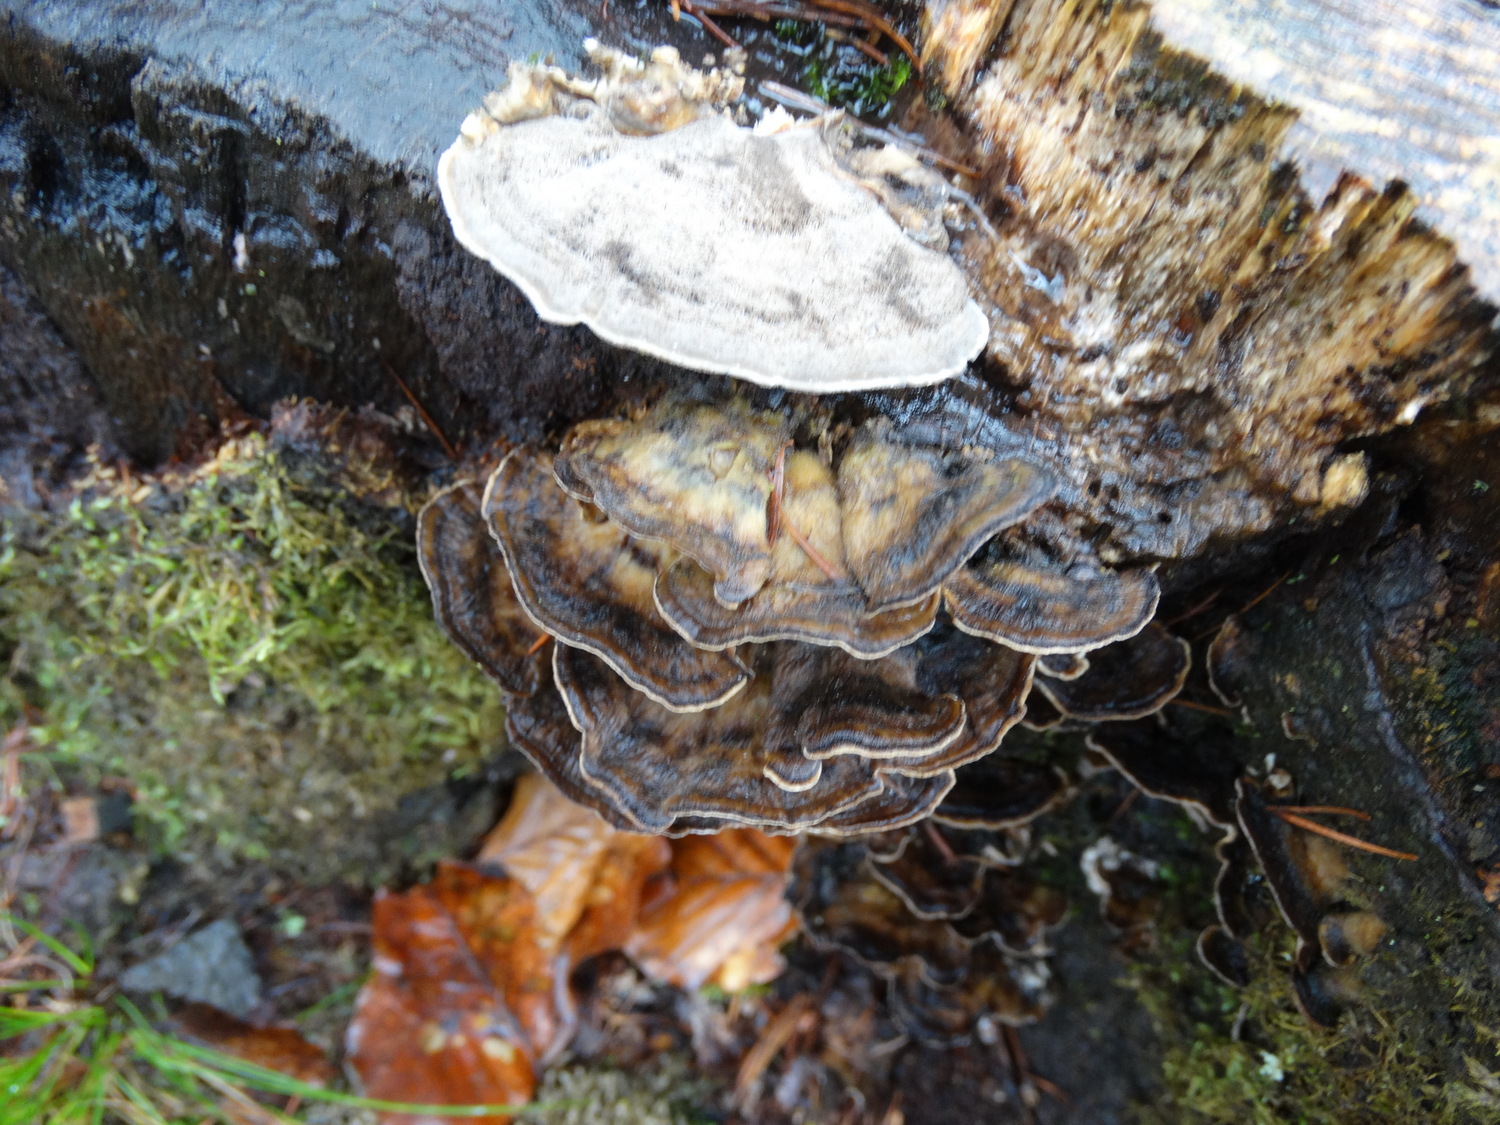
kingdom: Fungi
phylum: Basidiomycota
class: Agaricomycetes
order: Polyporales
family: Phanerochaetaceae
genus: Bjerkandera
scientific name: Bjerkandera adusta
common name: sveden sodporesvamp
